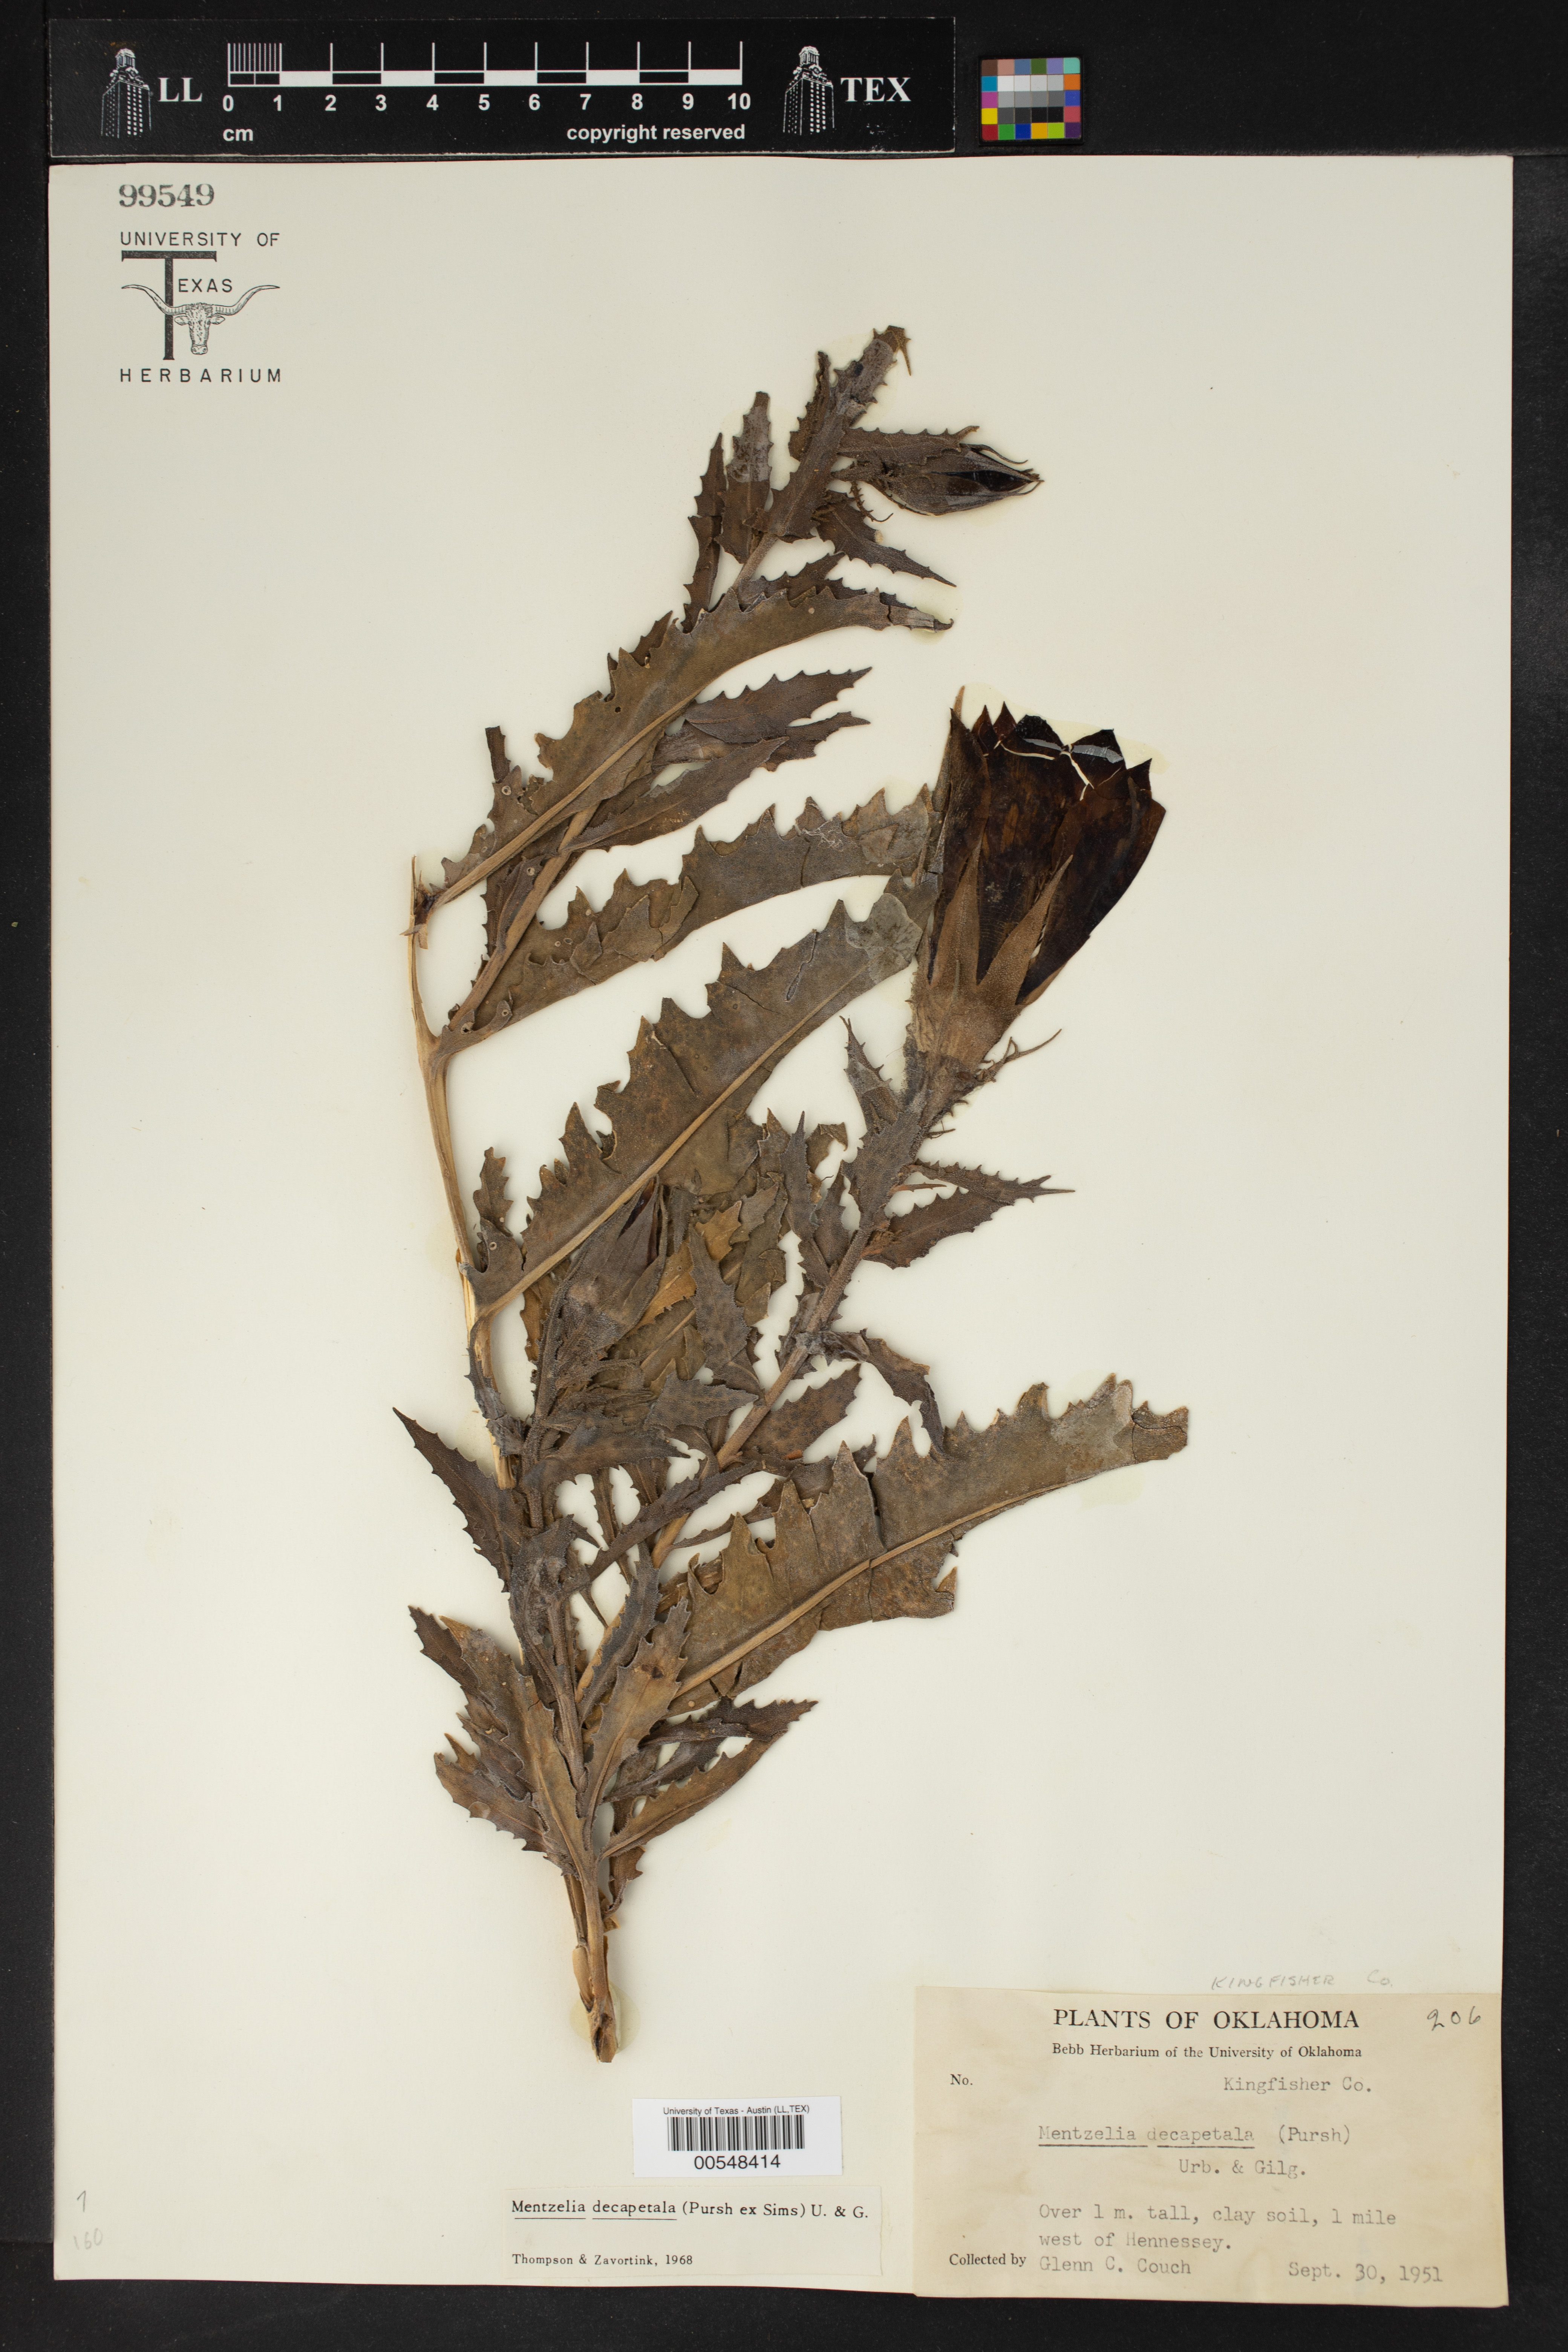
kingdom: Plantae
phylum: Tracheophyta
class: Magnoliopsida
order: Cornales
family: Loasaceae
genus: Mentzelia
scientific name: Mentzelia decapetala
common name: Gumbo-lily
